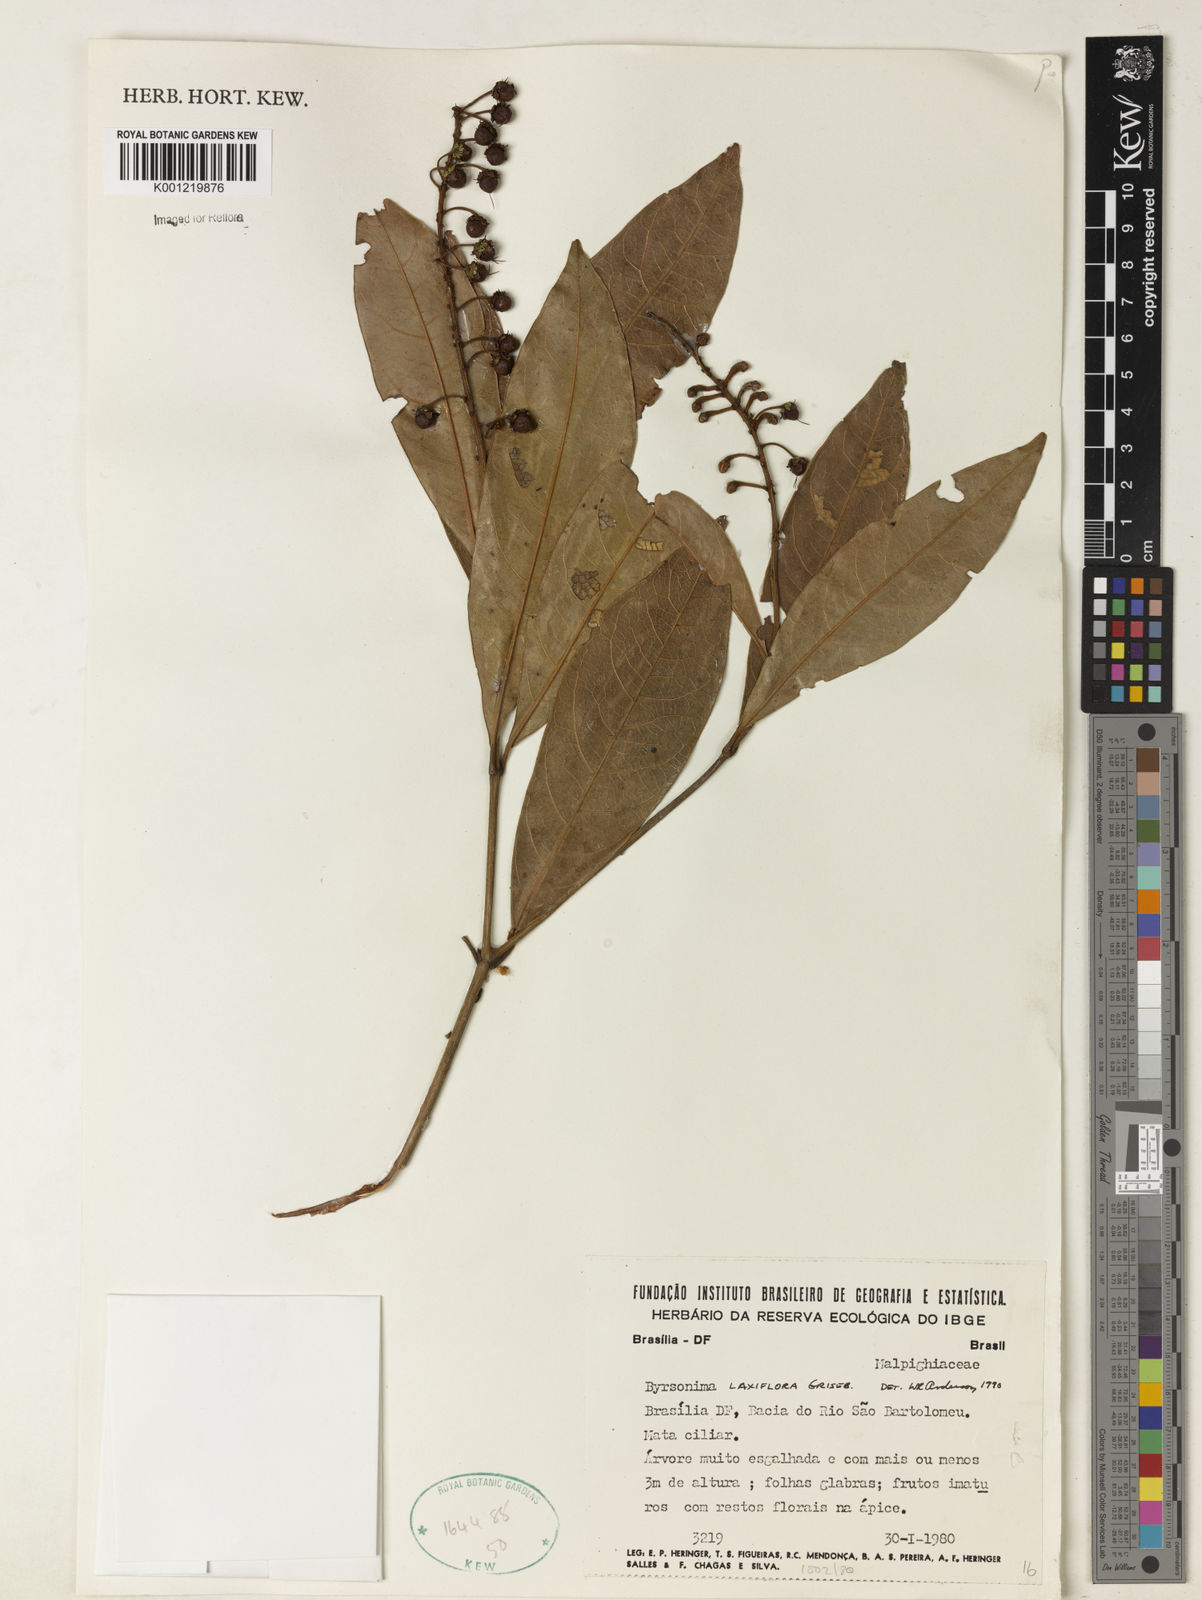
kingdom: Plantae
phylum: Tracheophyta
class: Magnoliopsida
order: Malpighiales
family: Malpighiaceae
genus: Byrsonima
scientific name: Byrsonima laxiflora
